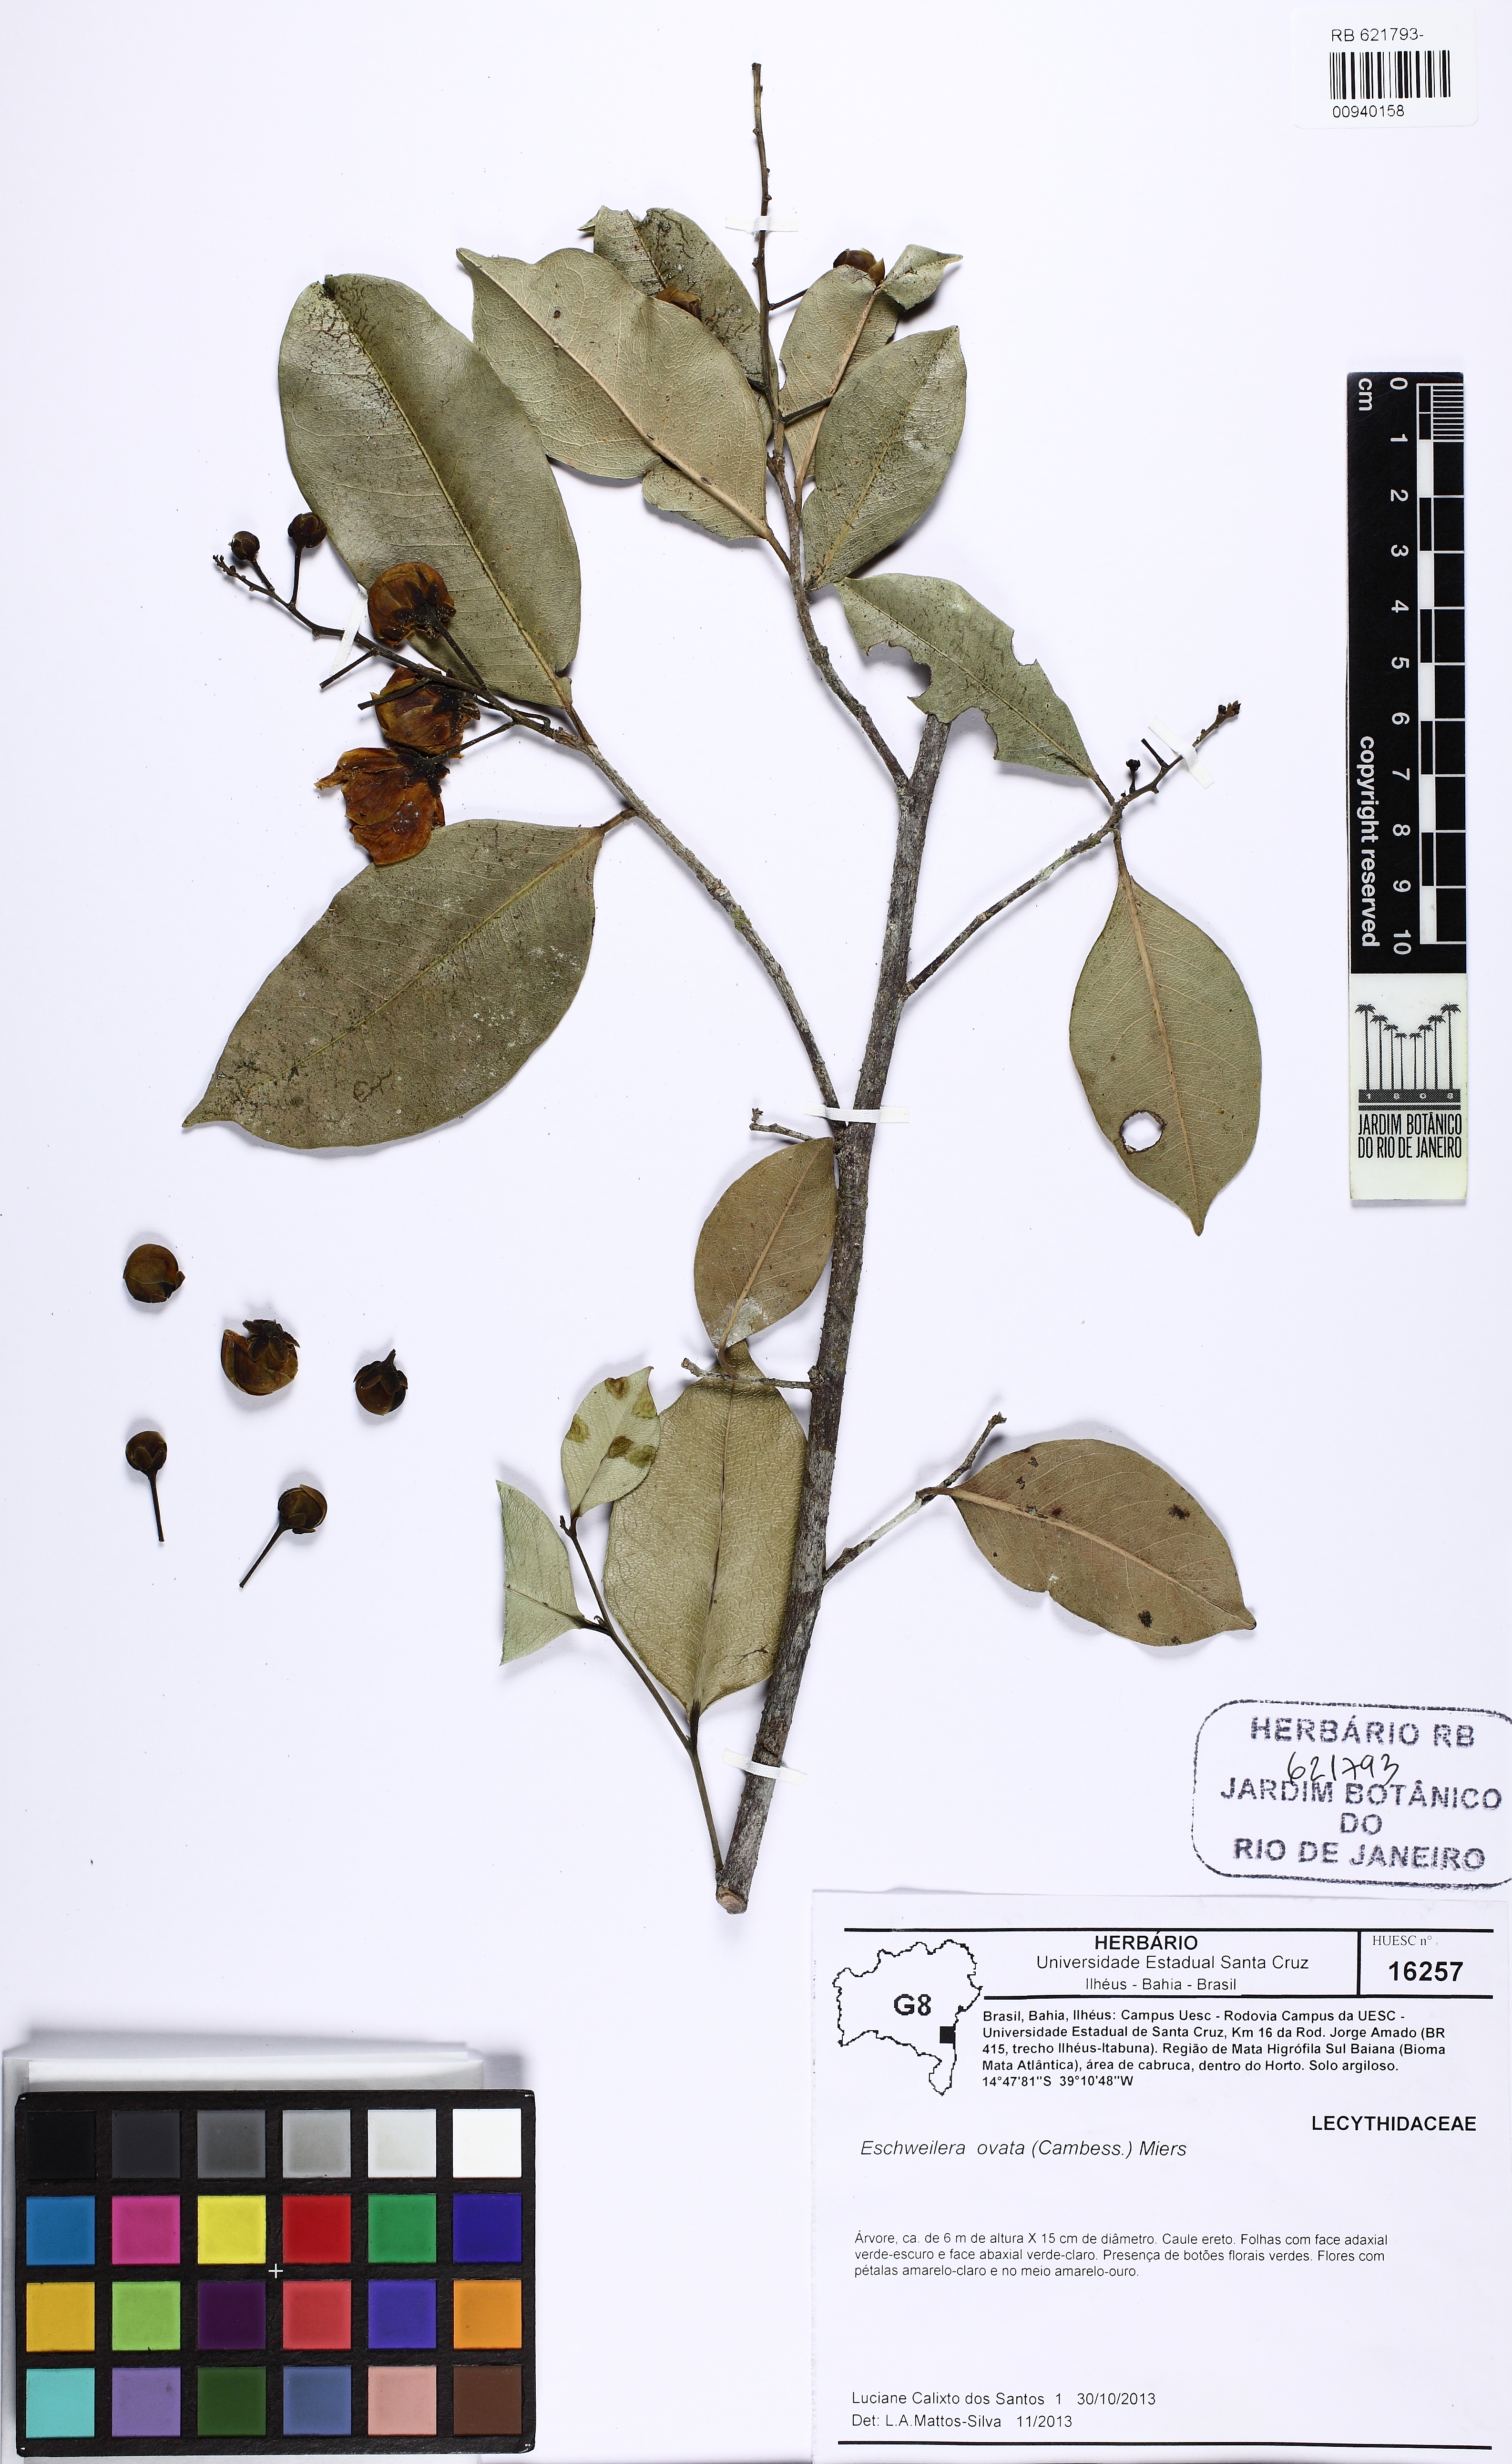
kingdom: Plantae
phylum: Tracheophyta
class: Magnoliopsida
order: Ericales
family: Lecythidaceae
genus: Eschweilera
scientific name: Eschweilera ovata
